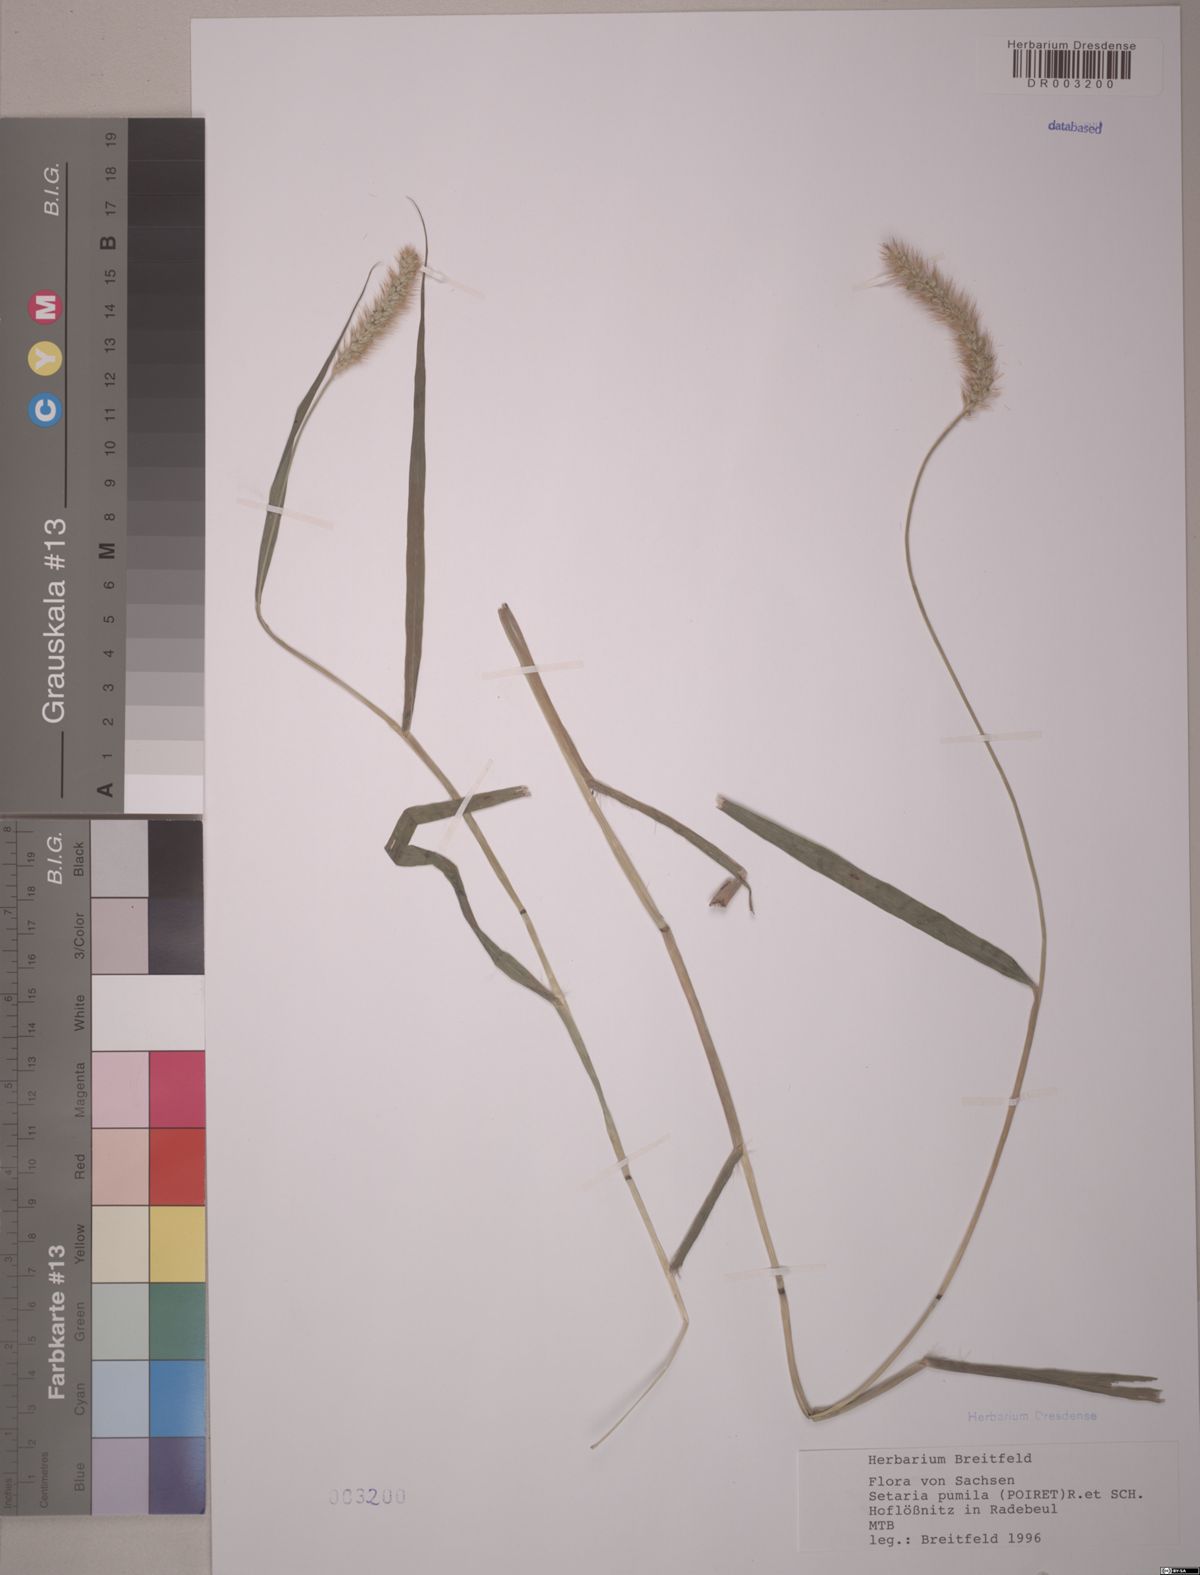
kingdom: Plantae
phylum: Tracheophyta
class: Liliopsida
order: Poales
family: Poaceae
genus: Setaria
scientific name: Setaria pumila
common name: Yellow bristle-grass
